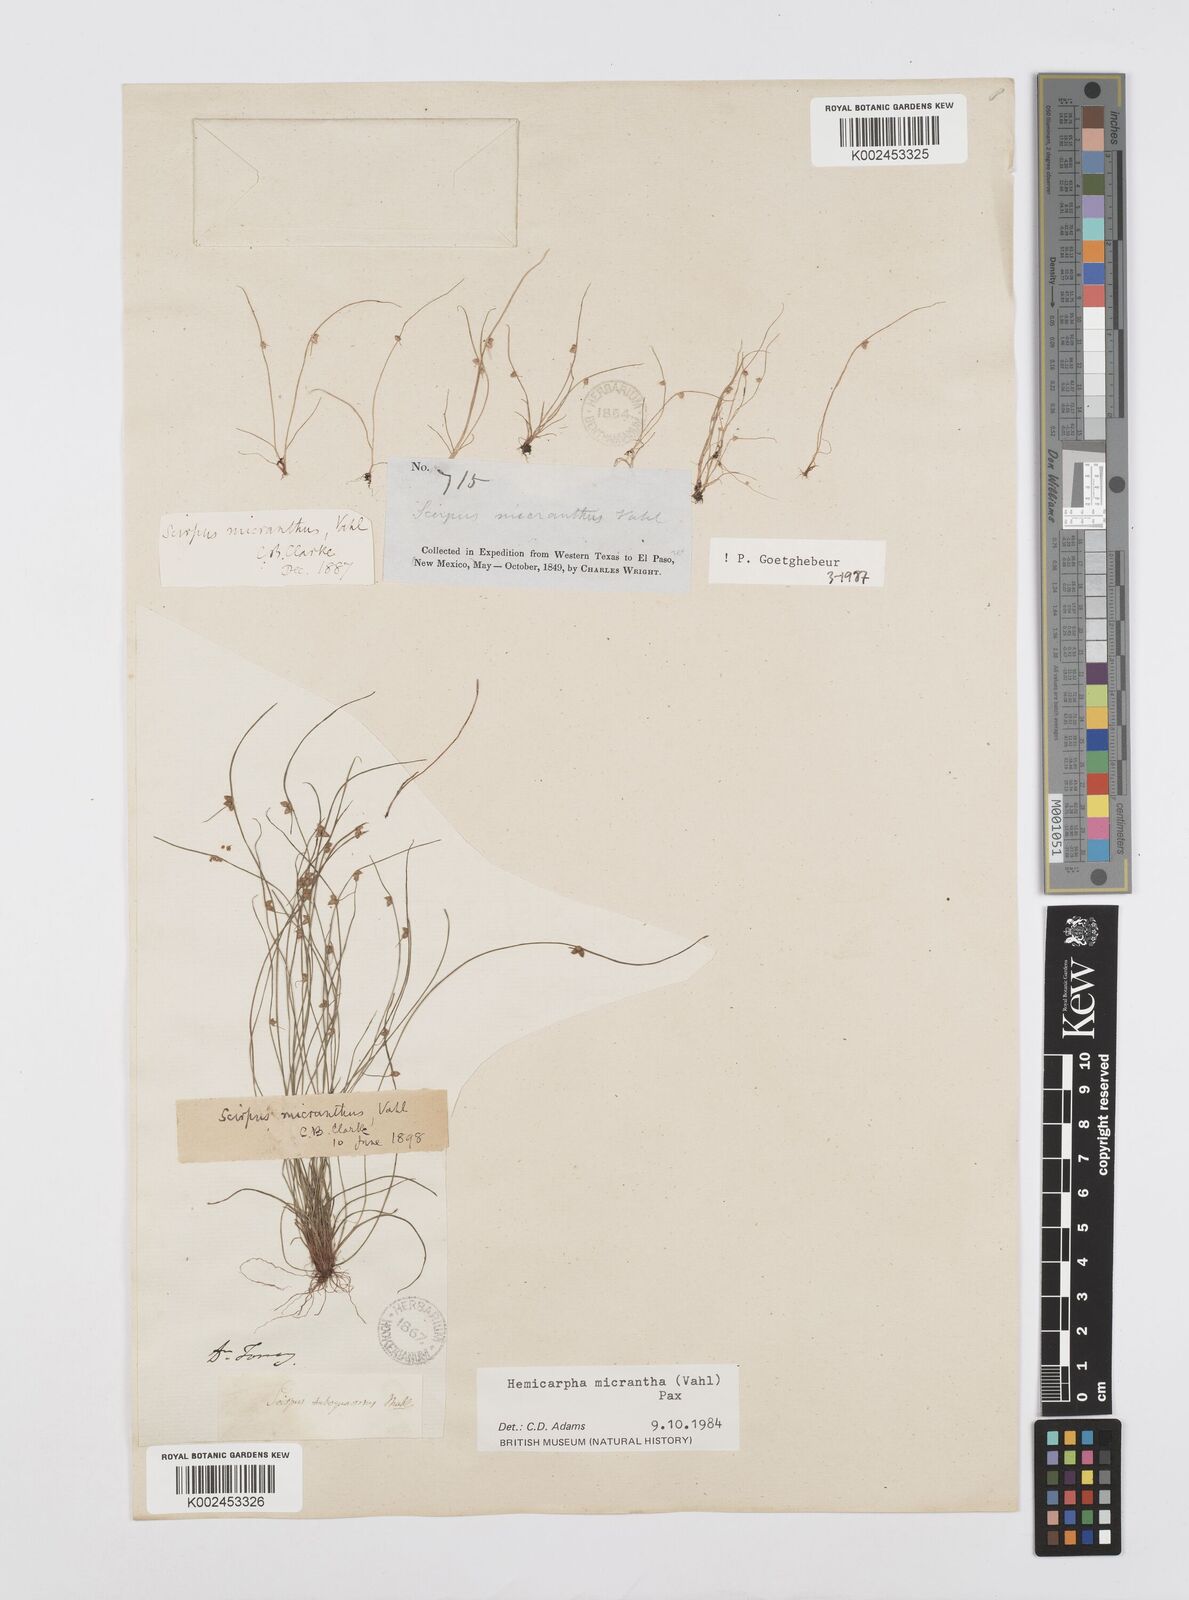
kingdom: Plantae
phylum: Tracheophyta
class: Liliopsida
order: Poales
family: Cyperaceae
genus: Cyperus
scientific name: Cyperus dentatus
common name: Dentate umbrella sedge
